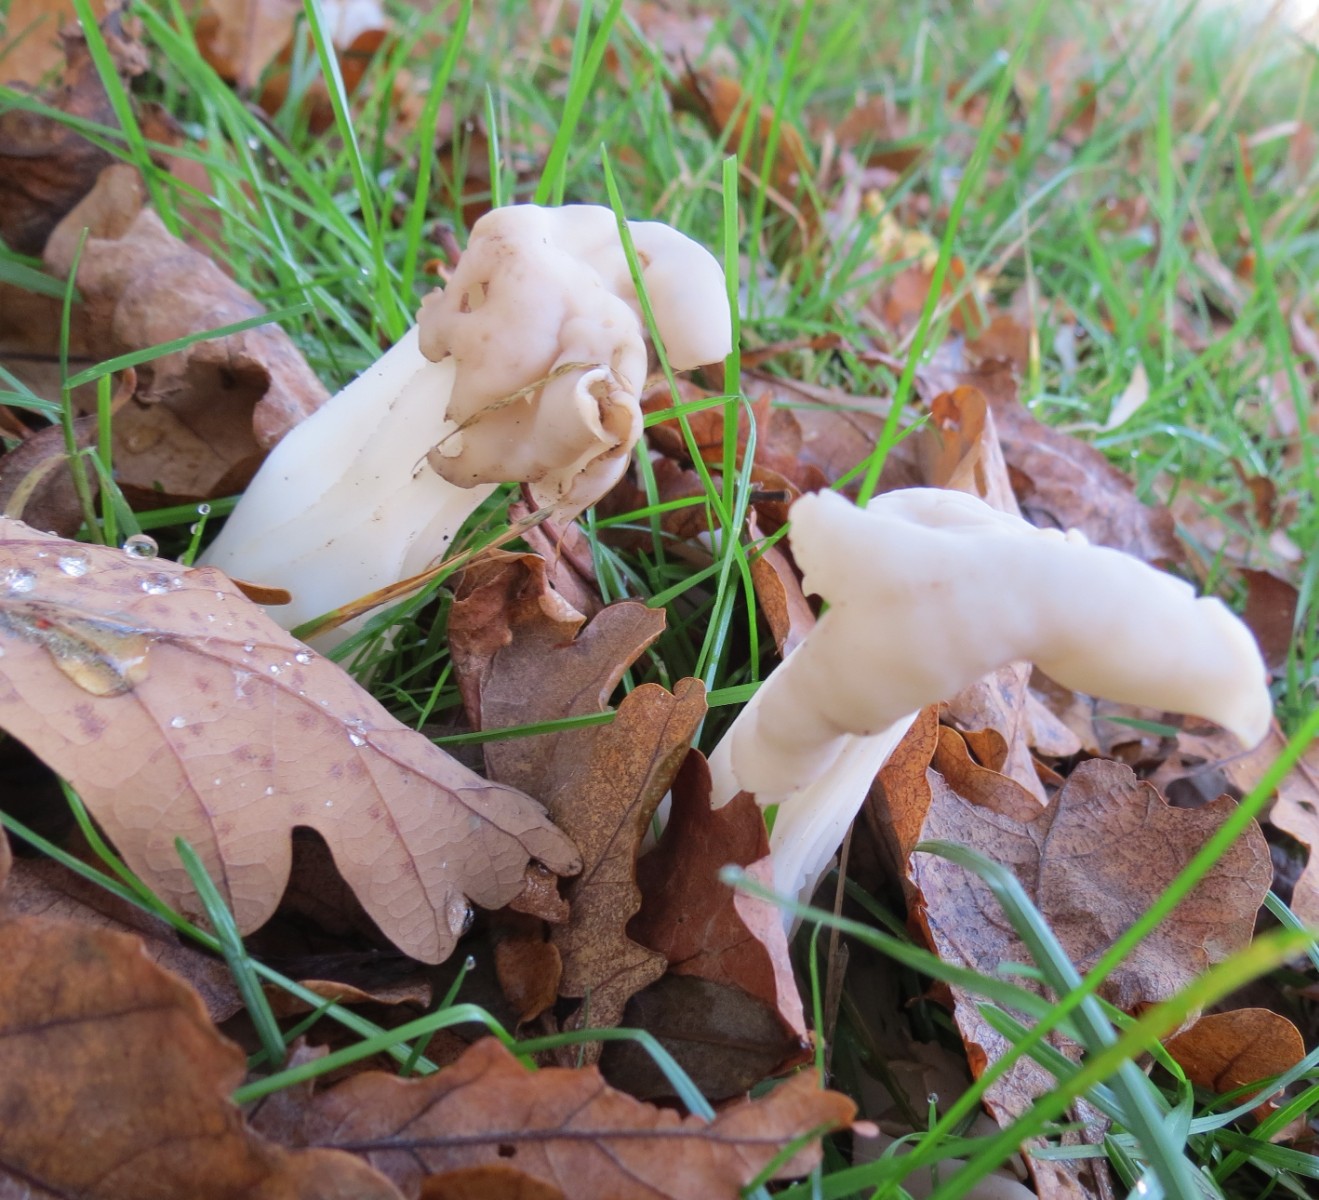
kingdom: Fungi
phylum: Ascomycota
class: Pezizomycetes
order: Pezizales
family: Helvellaceae
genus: Helvella
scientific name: Helvella crispa
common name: kruset foldhat
